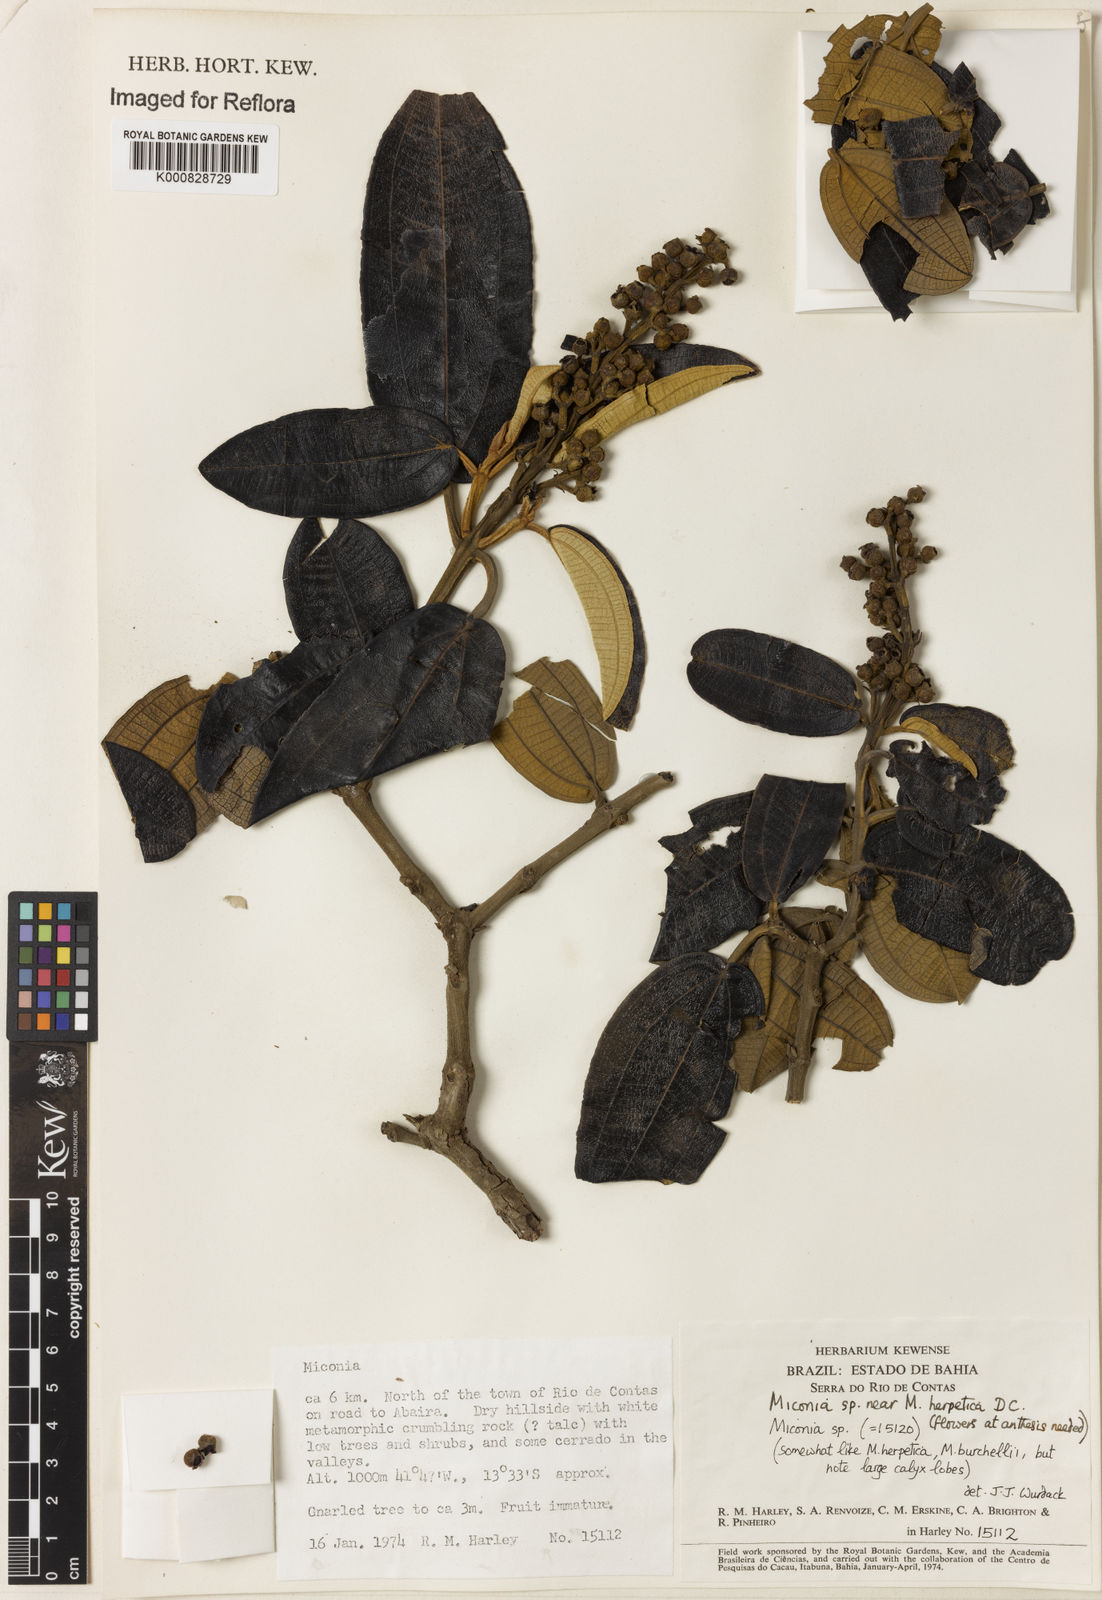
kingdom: Plantae
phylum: Tracheophyta
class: Magnoliopsida
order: Myrtales
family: Melastomataceae
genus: Miconia
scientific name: Miconia herpetica
